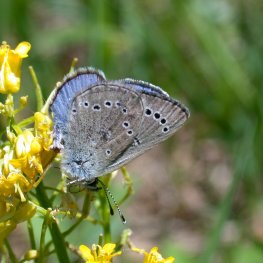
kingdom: Animalia
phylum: Arthropoda
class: Insecta
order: Lepidoptera
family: Lycaenidae
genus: Glaucopsyche
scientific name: Glaucopsyche lygdamus
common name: Silvery Blue
